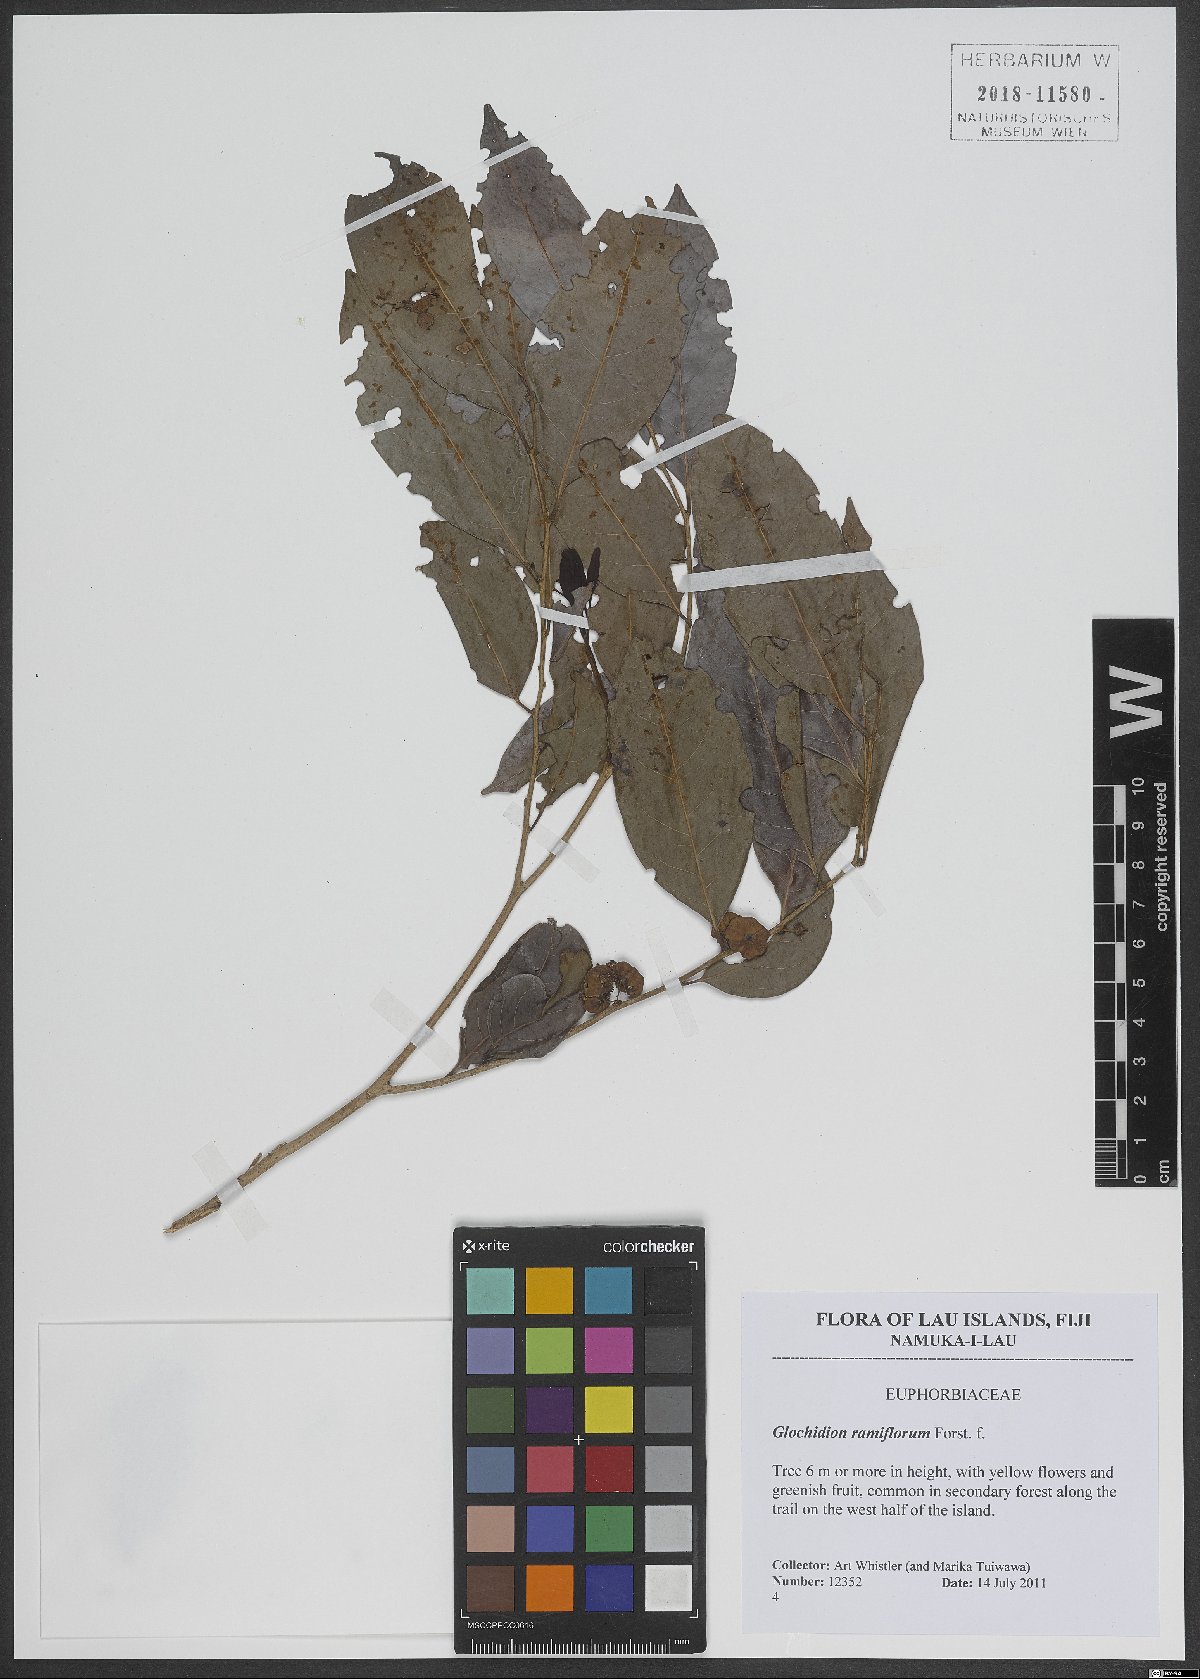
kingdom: Plantae
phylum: Tracheophyta
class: Magnoliopsida
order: Malpighiales
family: Phyllanthaceae
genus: Glochidion
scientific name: Glochidion ramiflorum
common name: Masame
